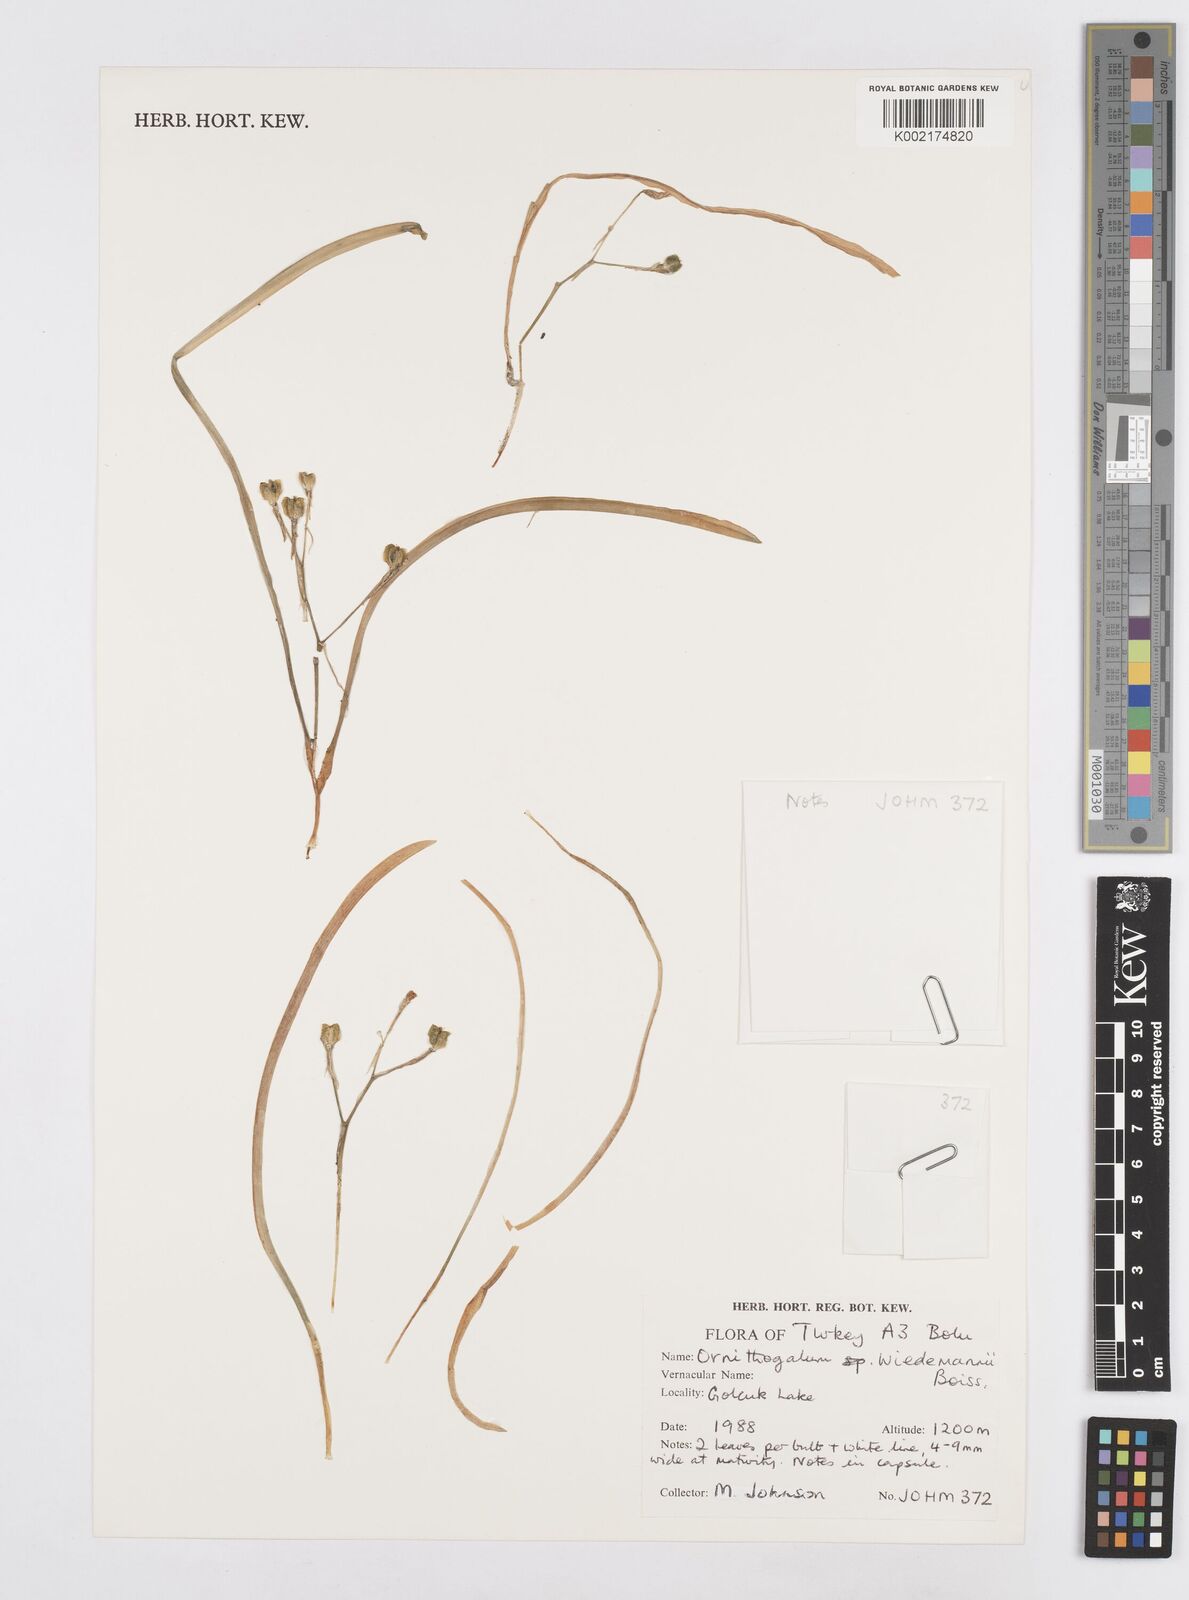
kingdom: Plantae
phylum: Tracheophyta
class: Liliopsida
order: Asparagales
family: Asparagaceae
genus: Ornithogalum
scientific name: Ornithogalum wiedemannii
